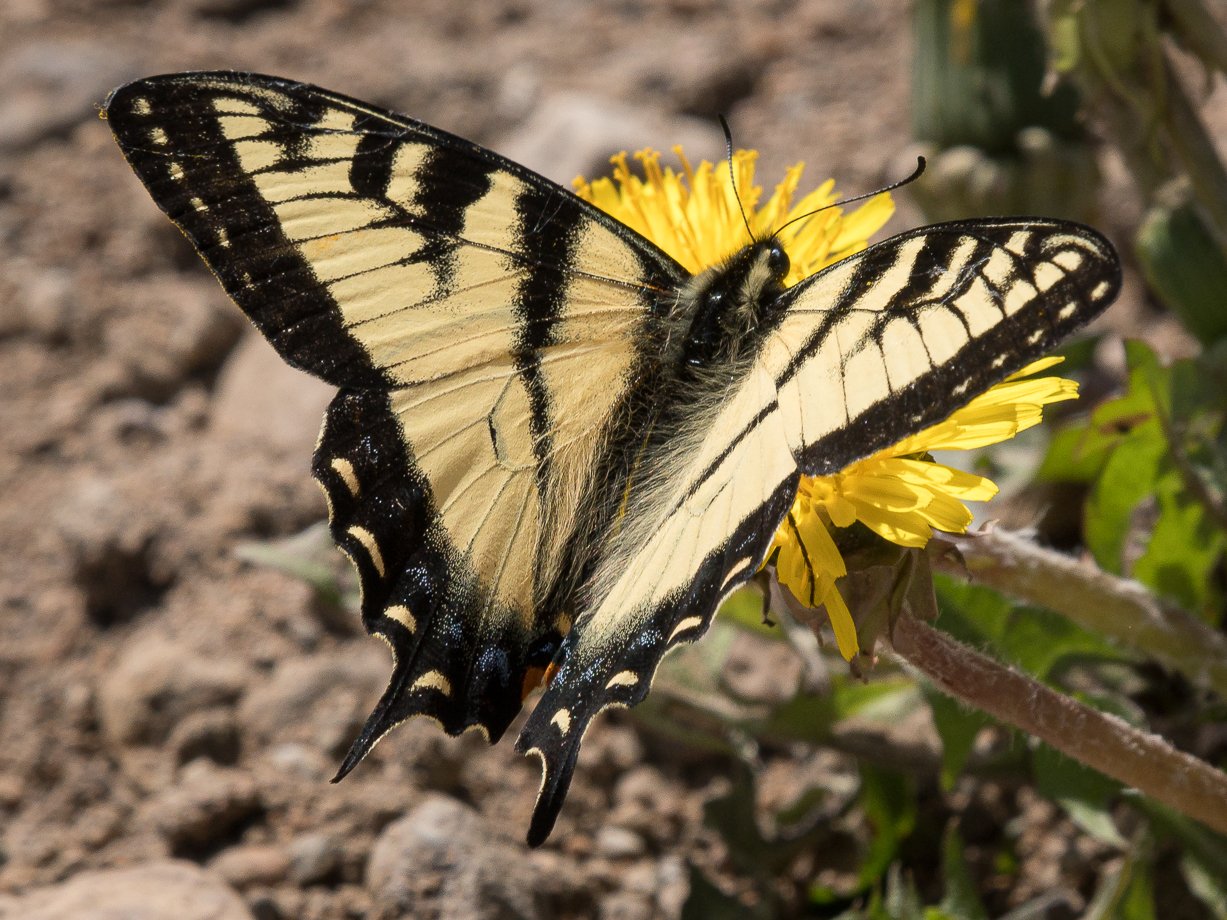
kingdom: Animalia
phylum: Arthropoda
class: Insecta
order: Lepidoptera
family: Papilionidae
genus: Pterourus
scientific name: Pterourus canadensis
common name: Canadian Tiger Swallowtail
